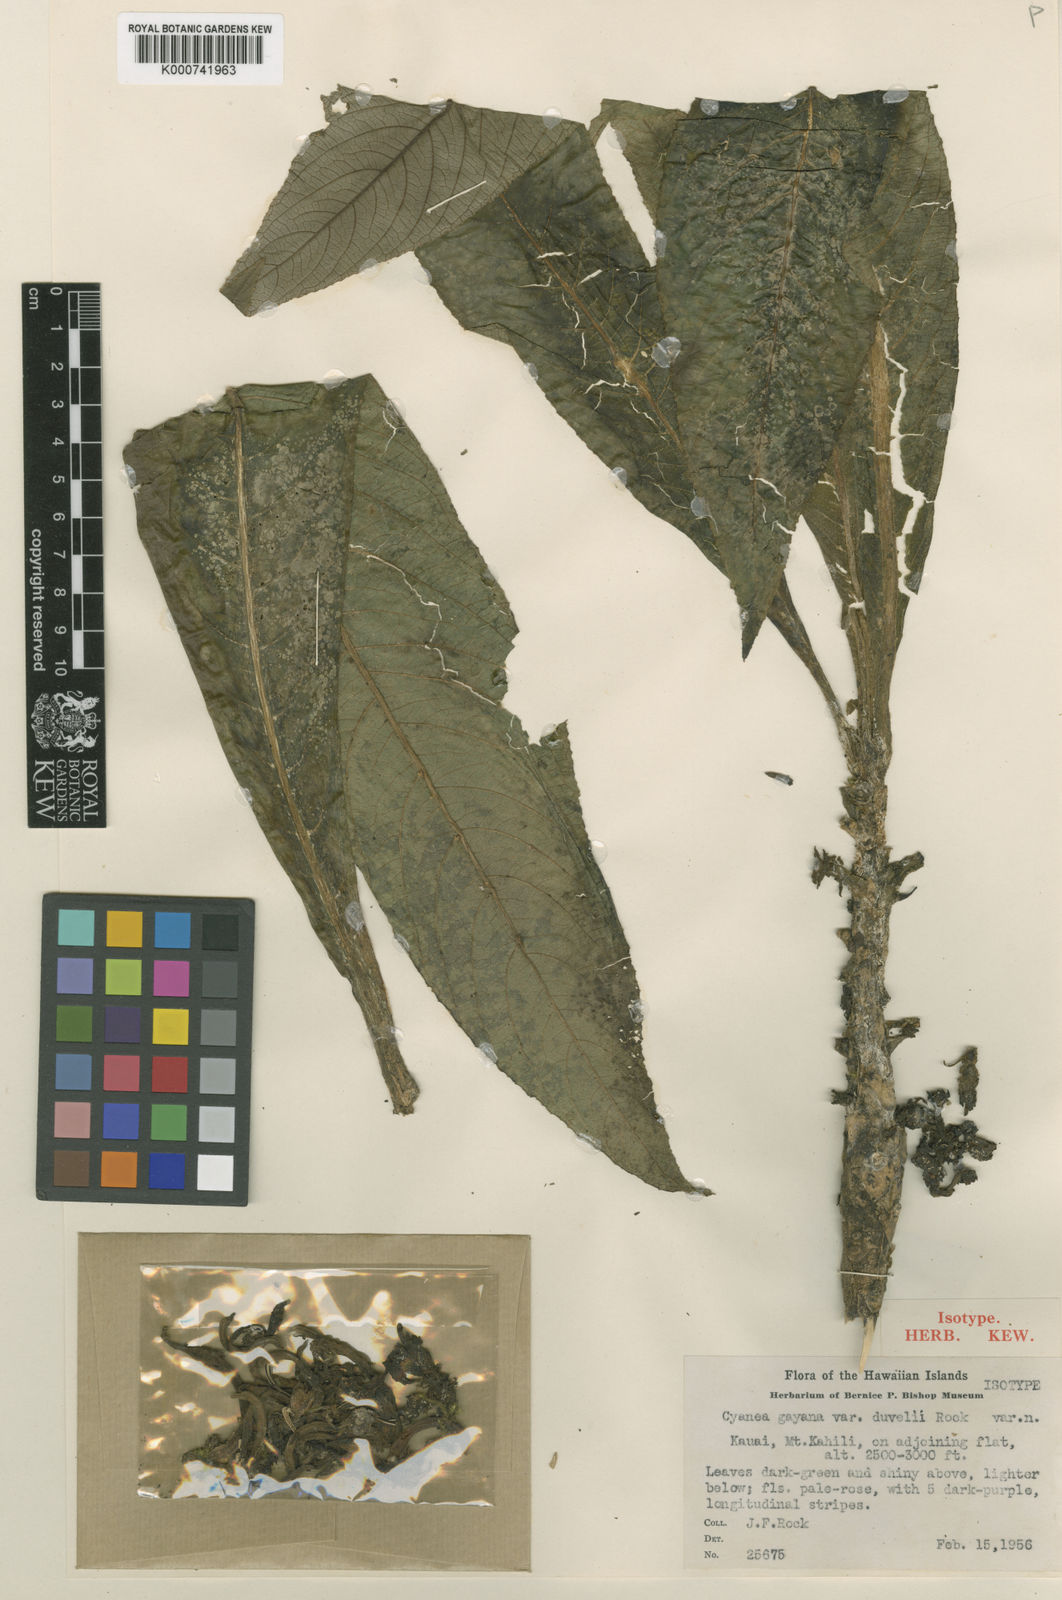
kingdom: Plantae
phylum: Tracheophyta
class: Magnoliopsida
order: Asterales
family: Campanulaceae
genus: Cyanea
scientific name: Cyanea fissa
